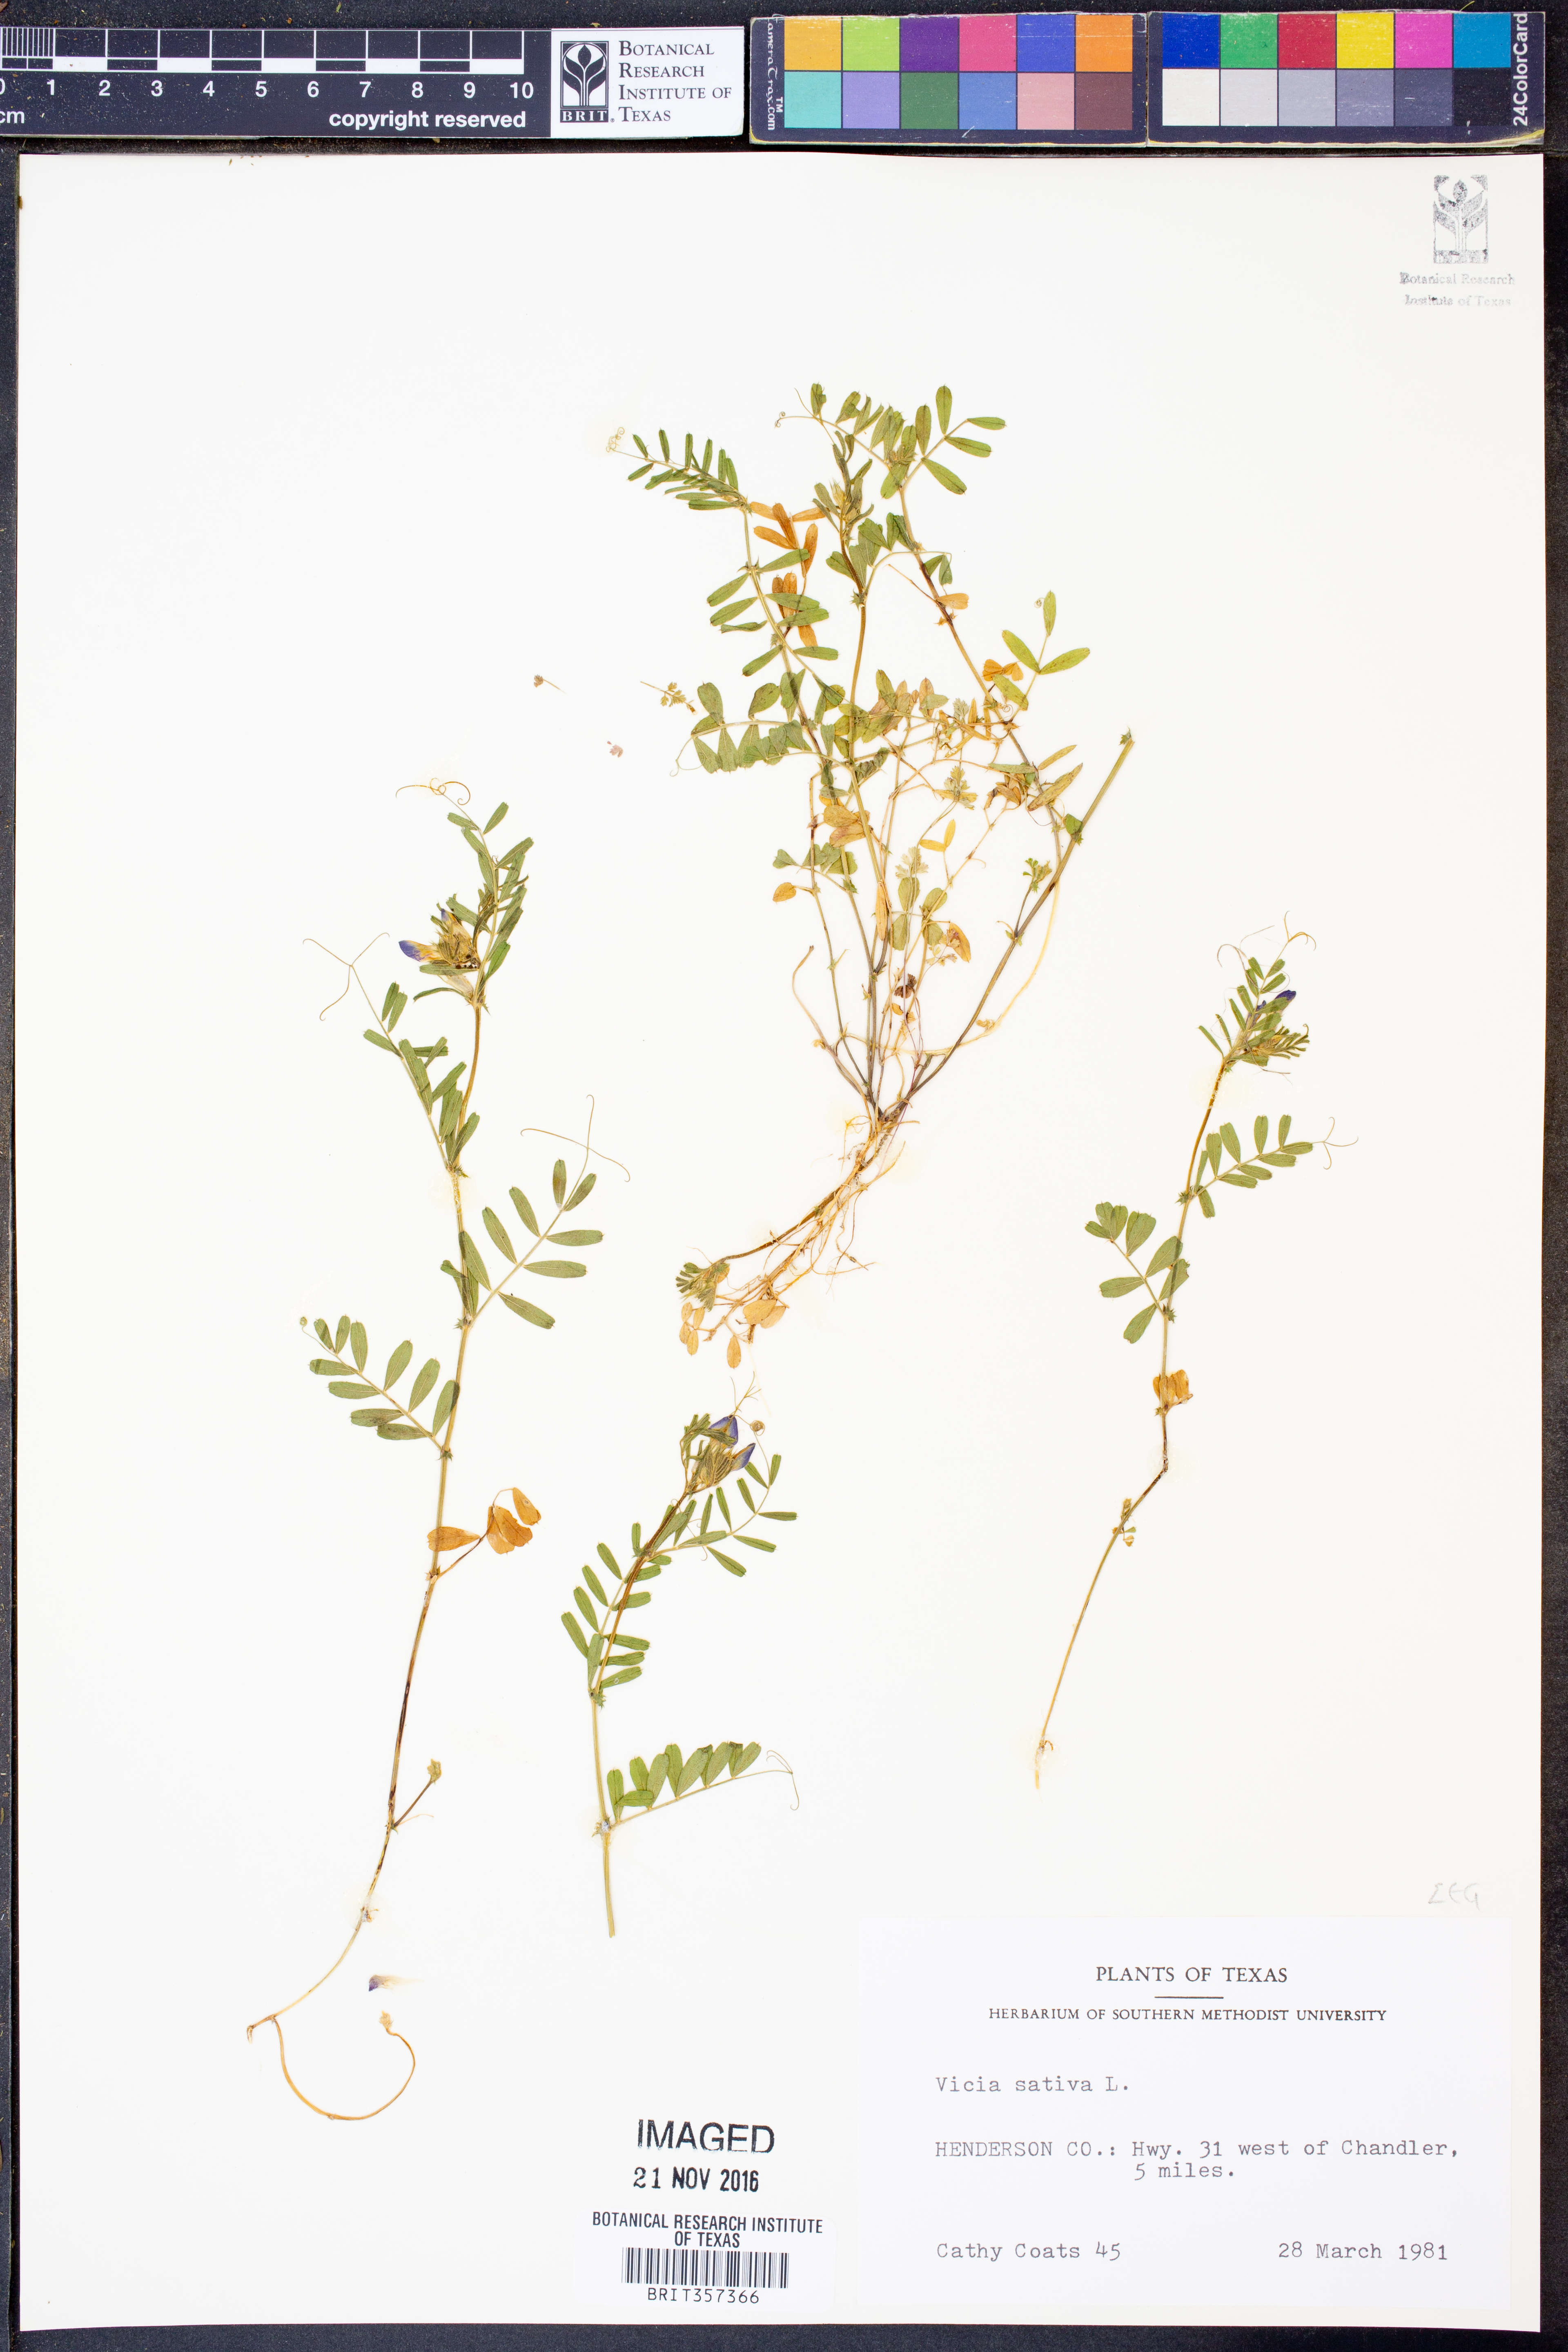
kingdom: Plantae
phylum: Tracheophyta
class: Magnoliopsida
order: Fabales
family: Fabaceae
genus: Vicia
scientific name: Vicia sativa
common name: Garden vetch
